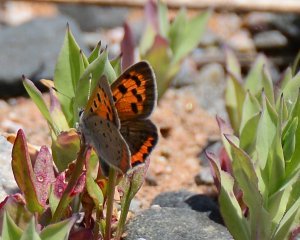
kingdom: Animalia
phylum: Arthropoda
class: Insecta
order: Lepidoptera
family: Lycaenidae
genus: Lycaena
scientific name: Lycaena phlaeas
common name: American Copper
